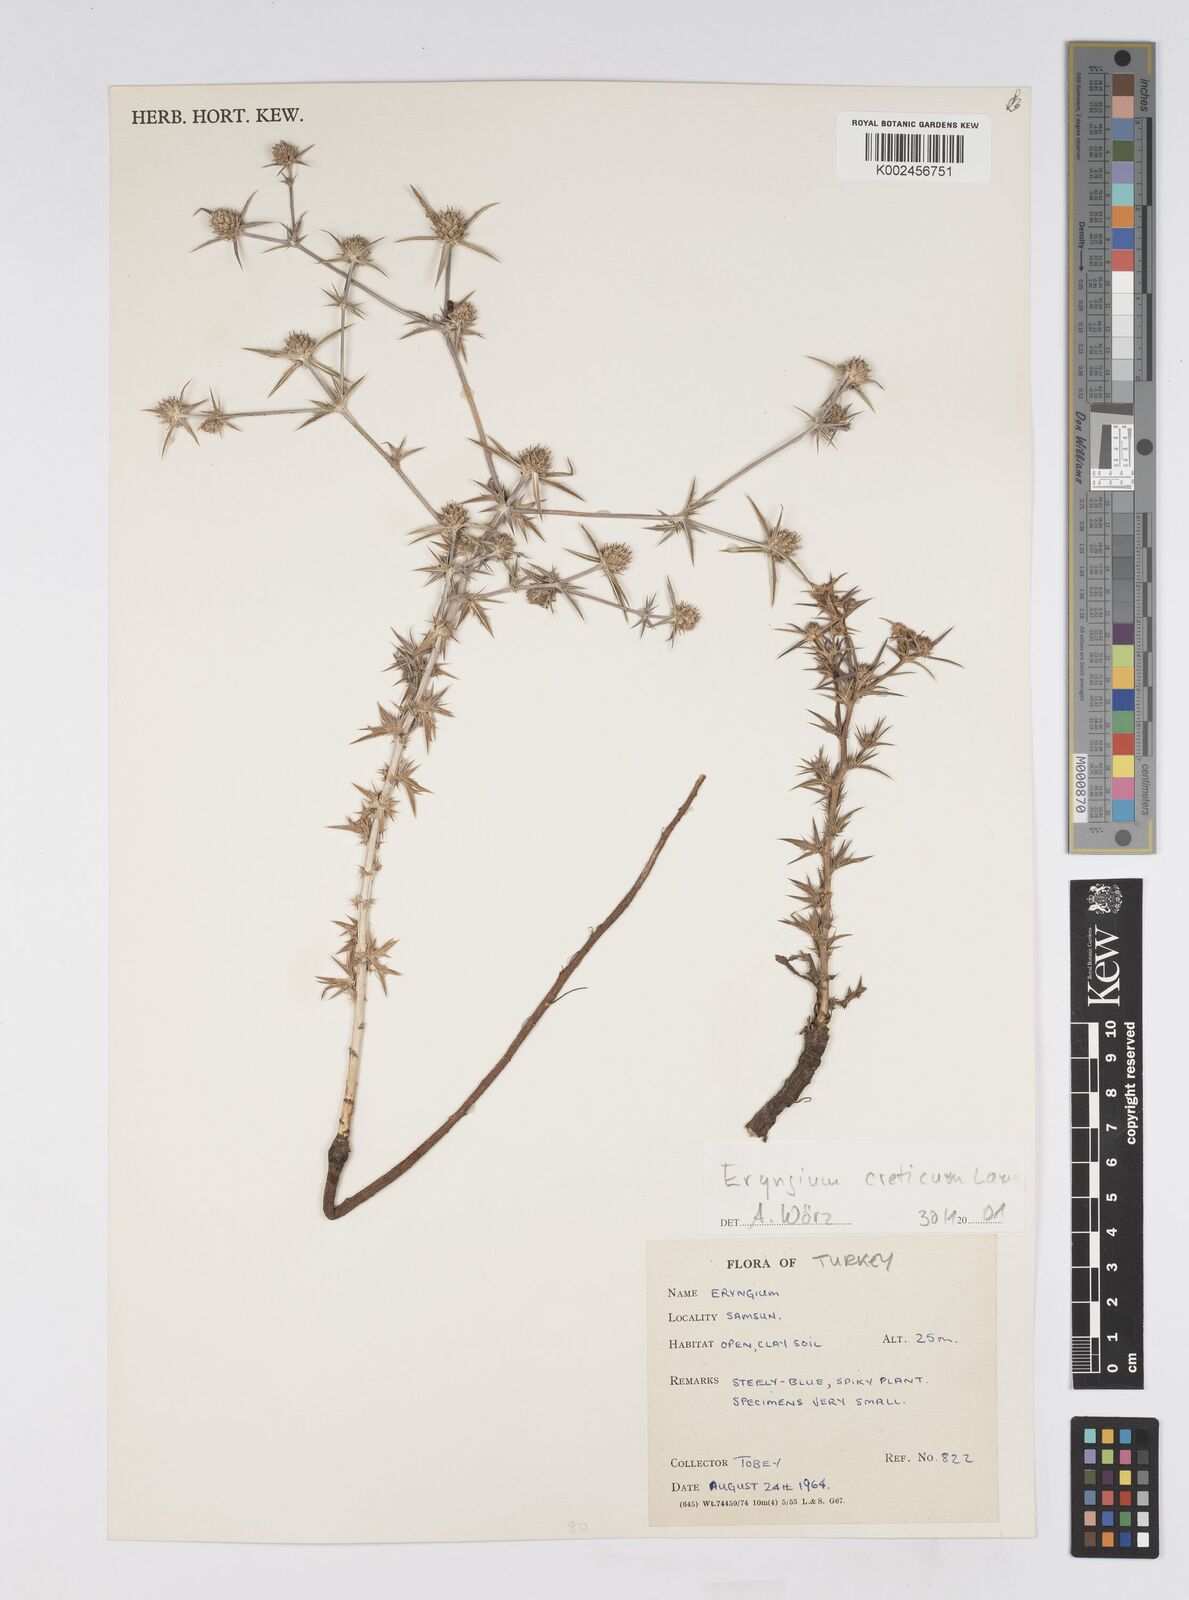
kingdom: Plantae
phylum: Tracheophyta
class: Magnoliopsida
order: Apiales
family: Apiaceae
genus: Eryngium
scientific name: Eryngium creticum
